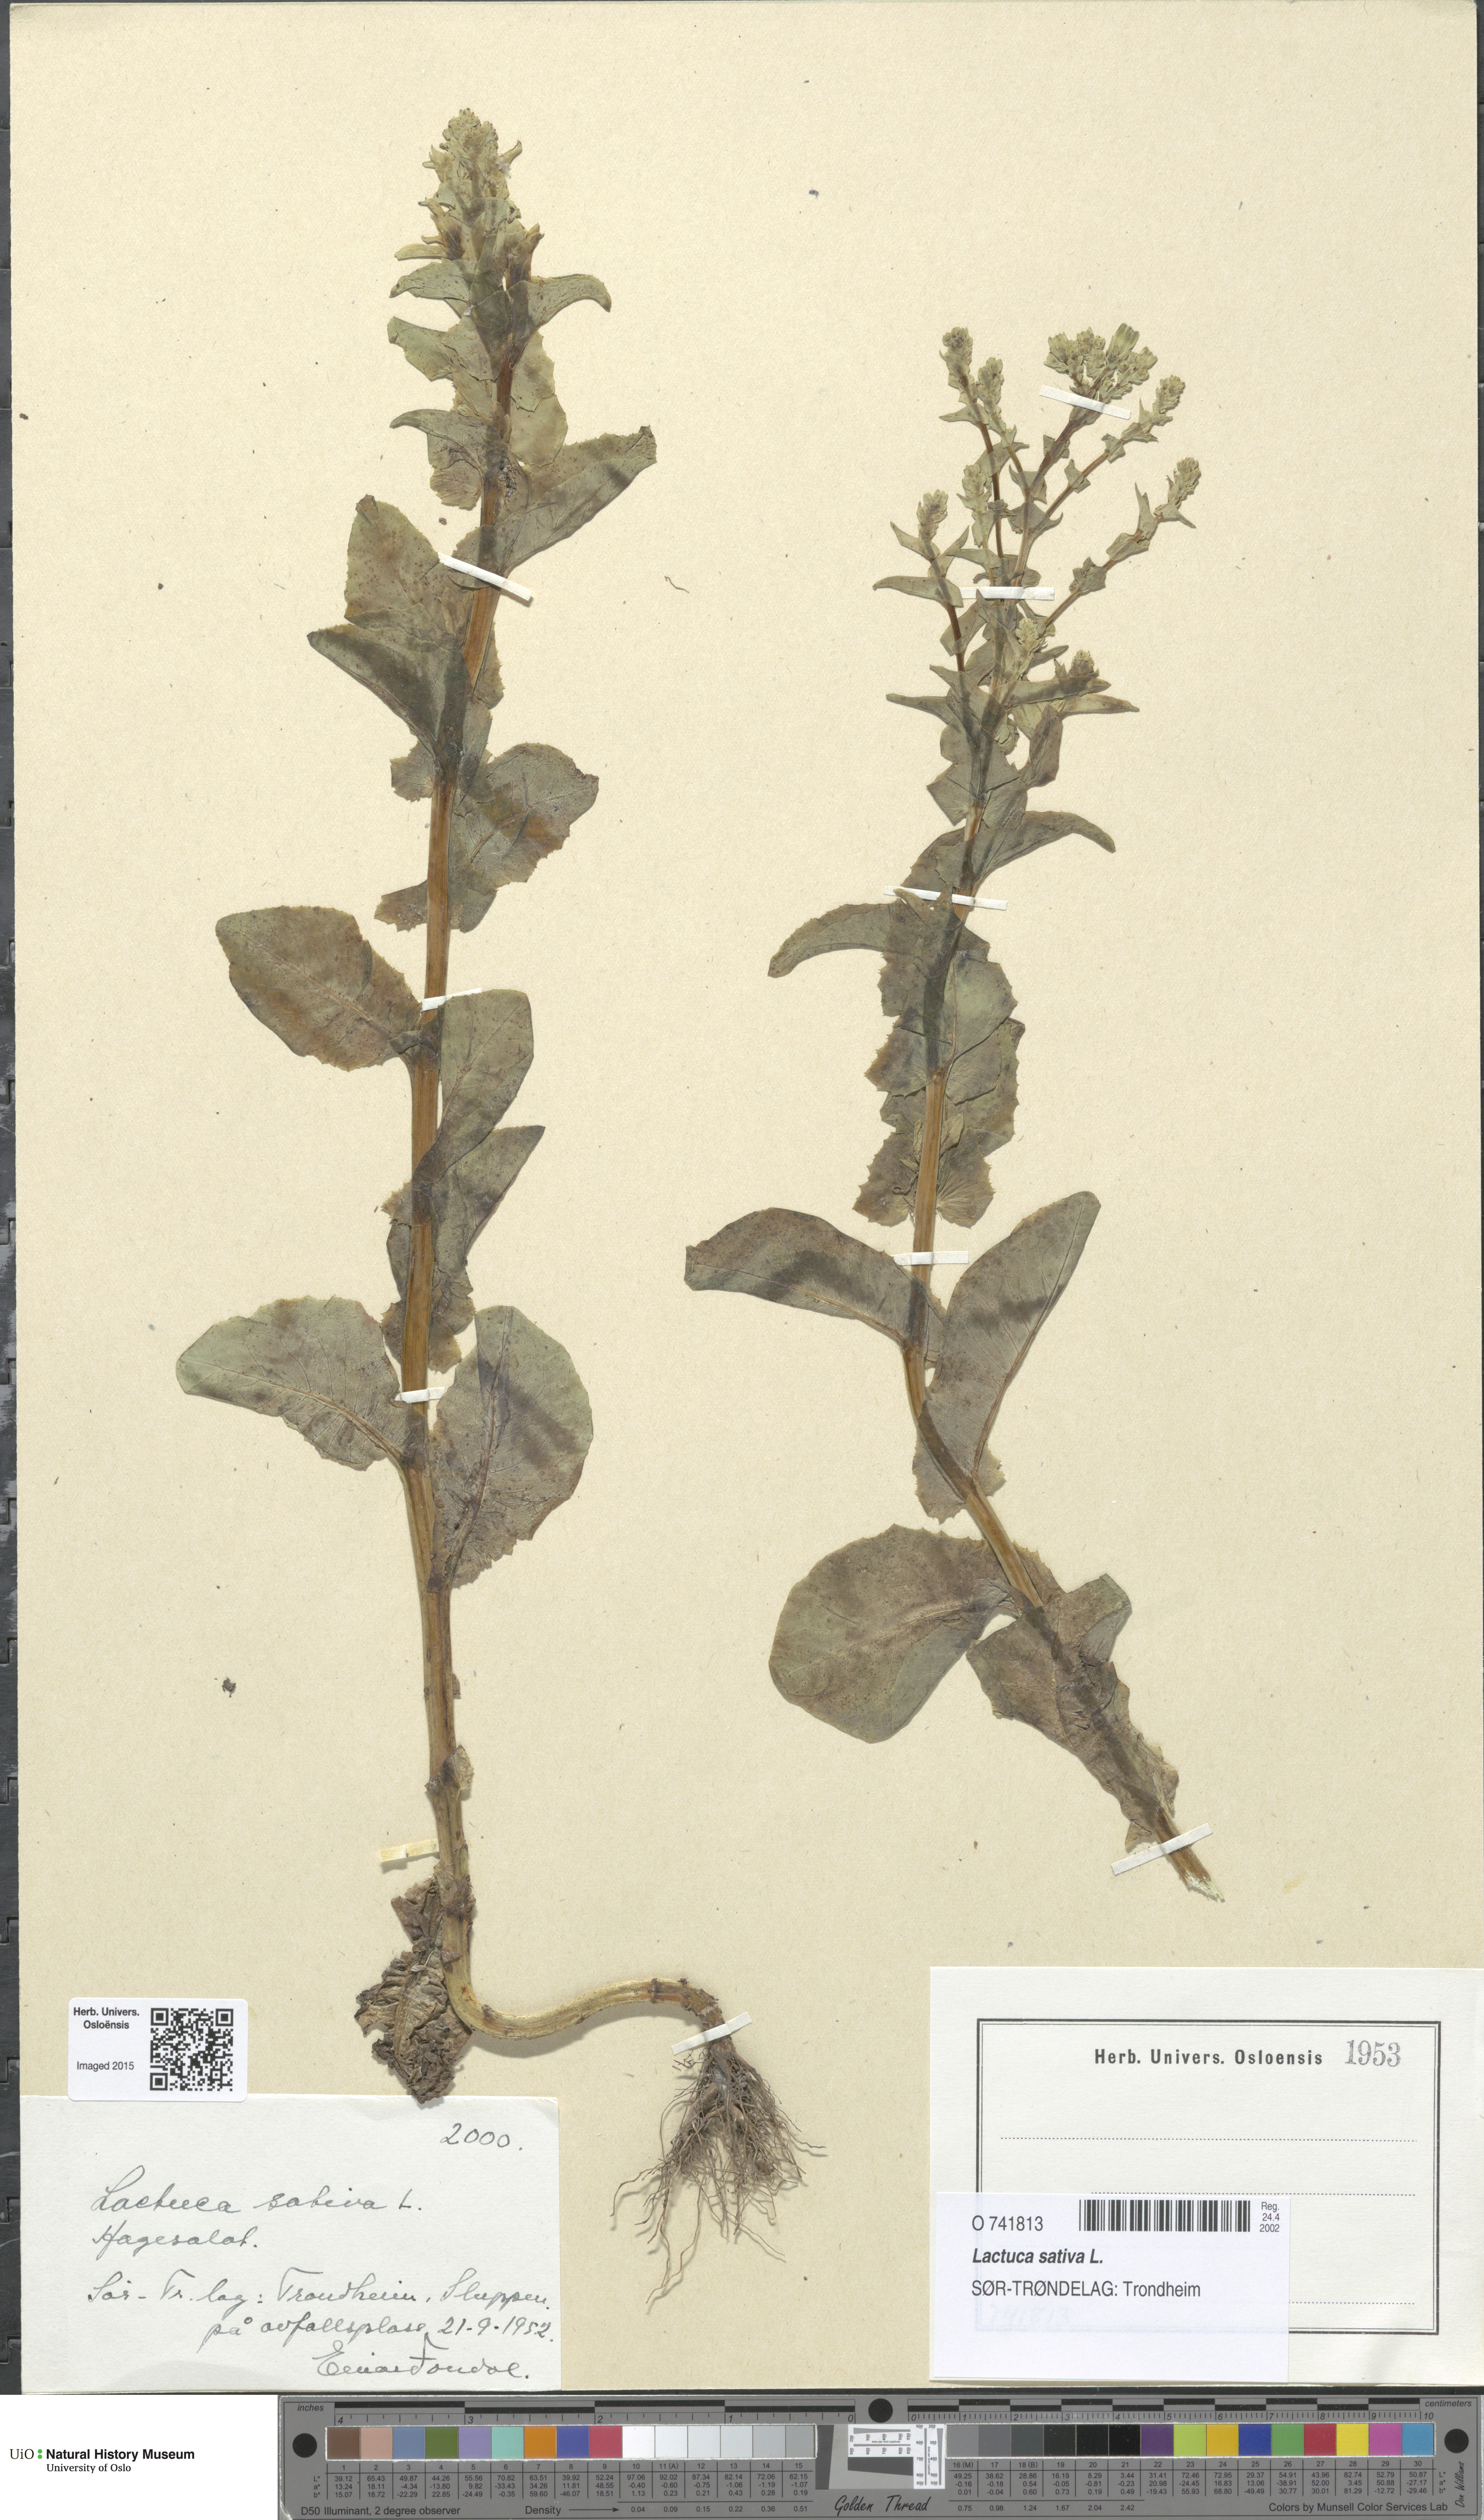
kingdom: Plantae
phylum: Tracheophyta
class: Magnoliopsida
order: Asterales
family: Asteraceae
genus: Lactuca
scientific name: Lactuca sativa
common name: Garden lettuce
